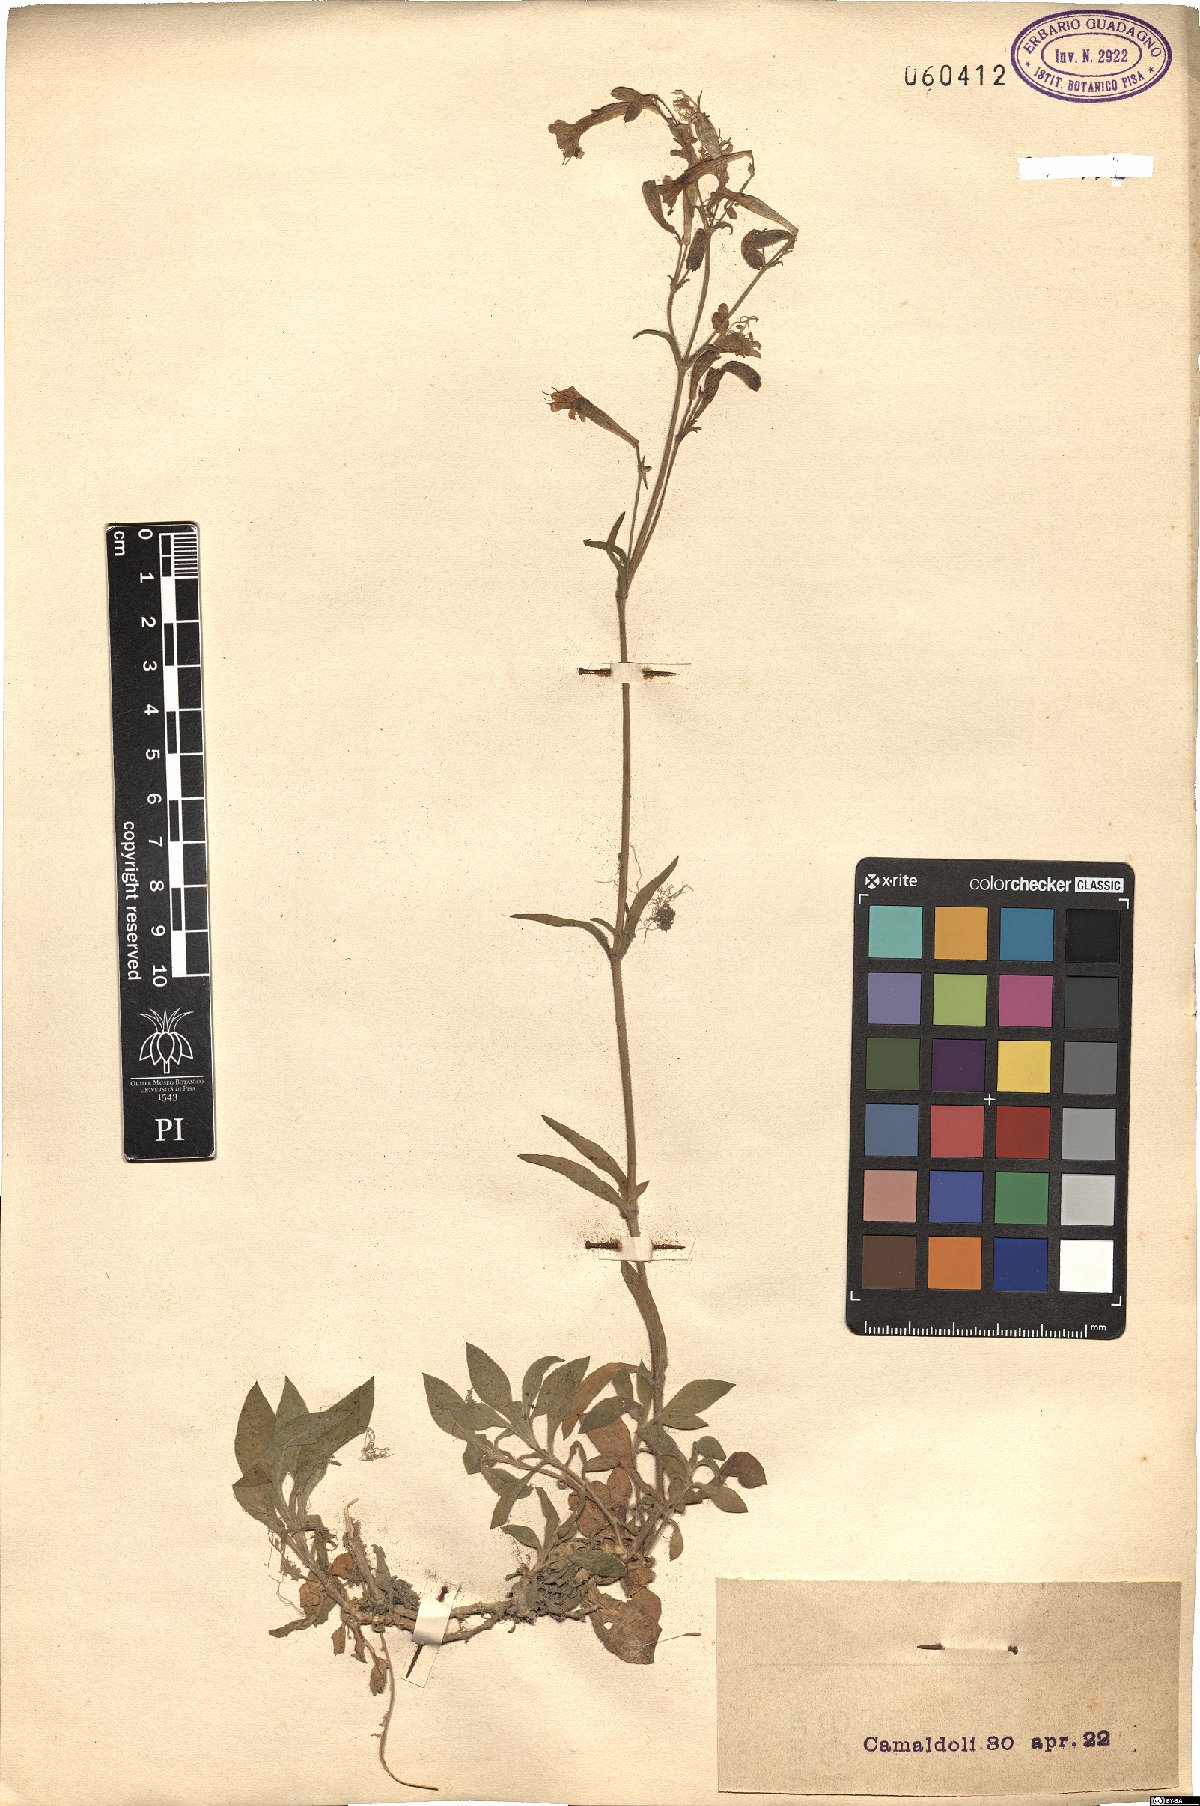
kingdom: Plantae
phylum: Tracheophyta
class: Magnoliopsida
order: Caryophyllales
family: Caryophyllaceae
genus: Silene
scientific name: Silene
